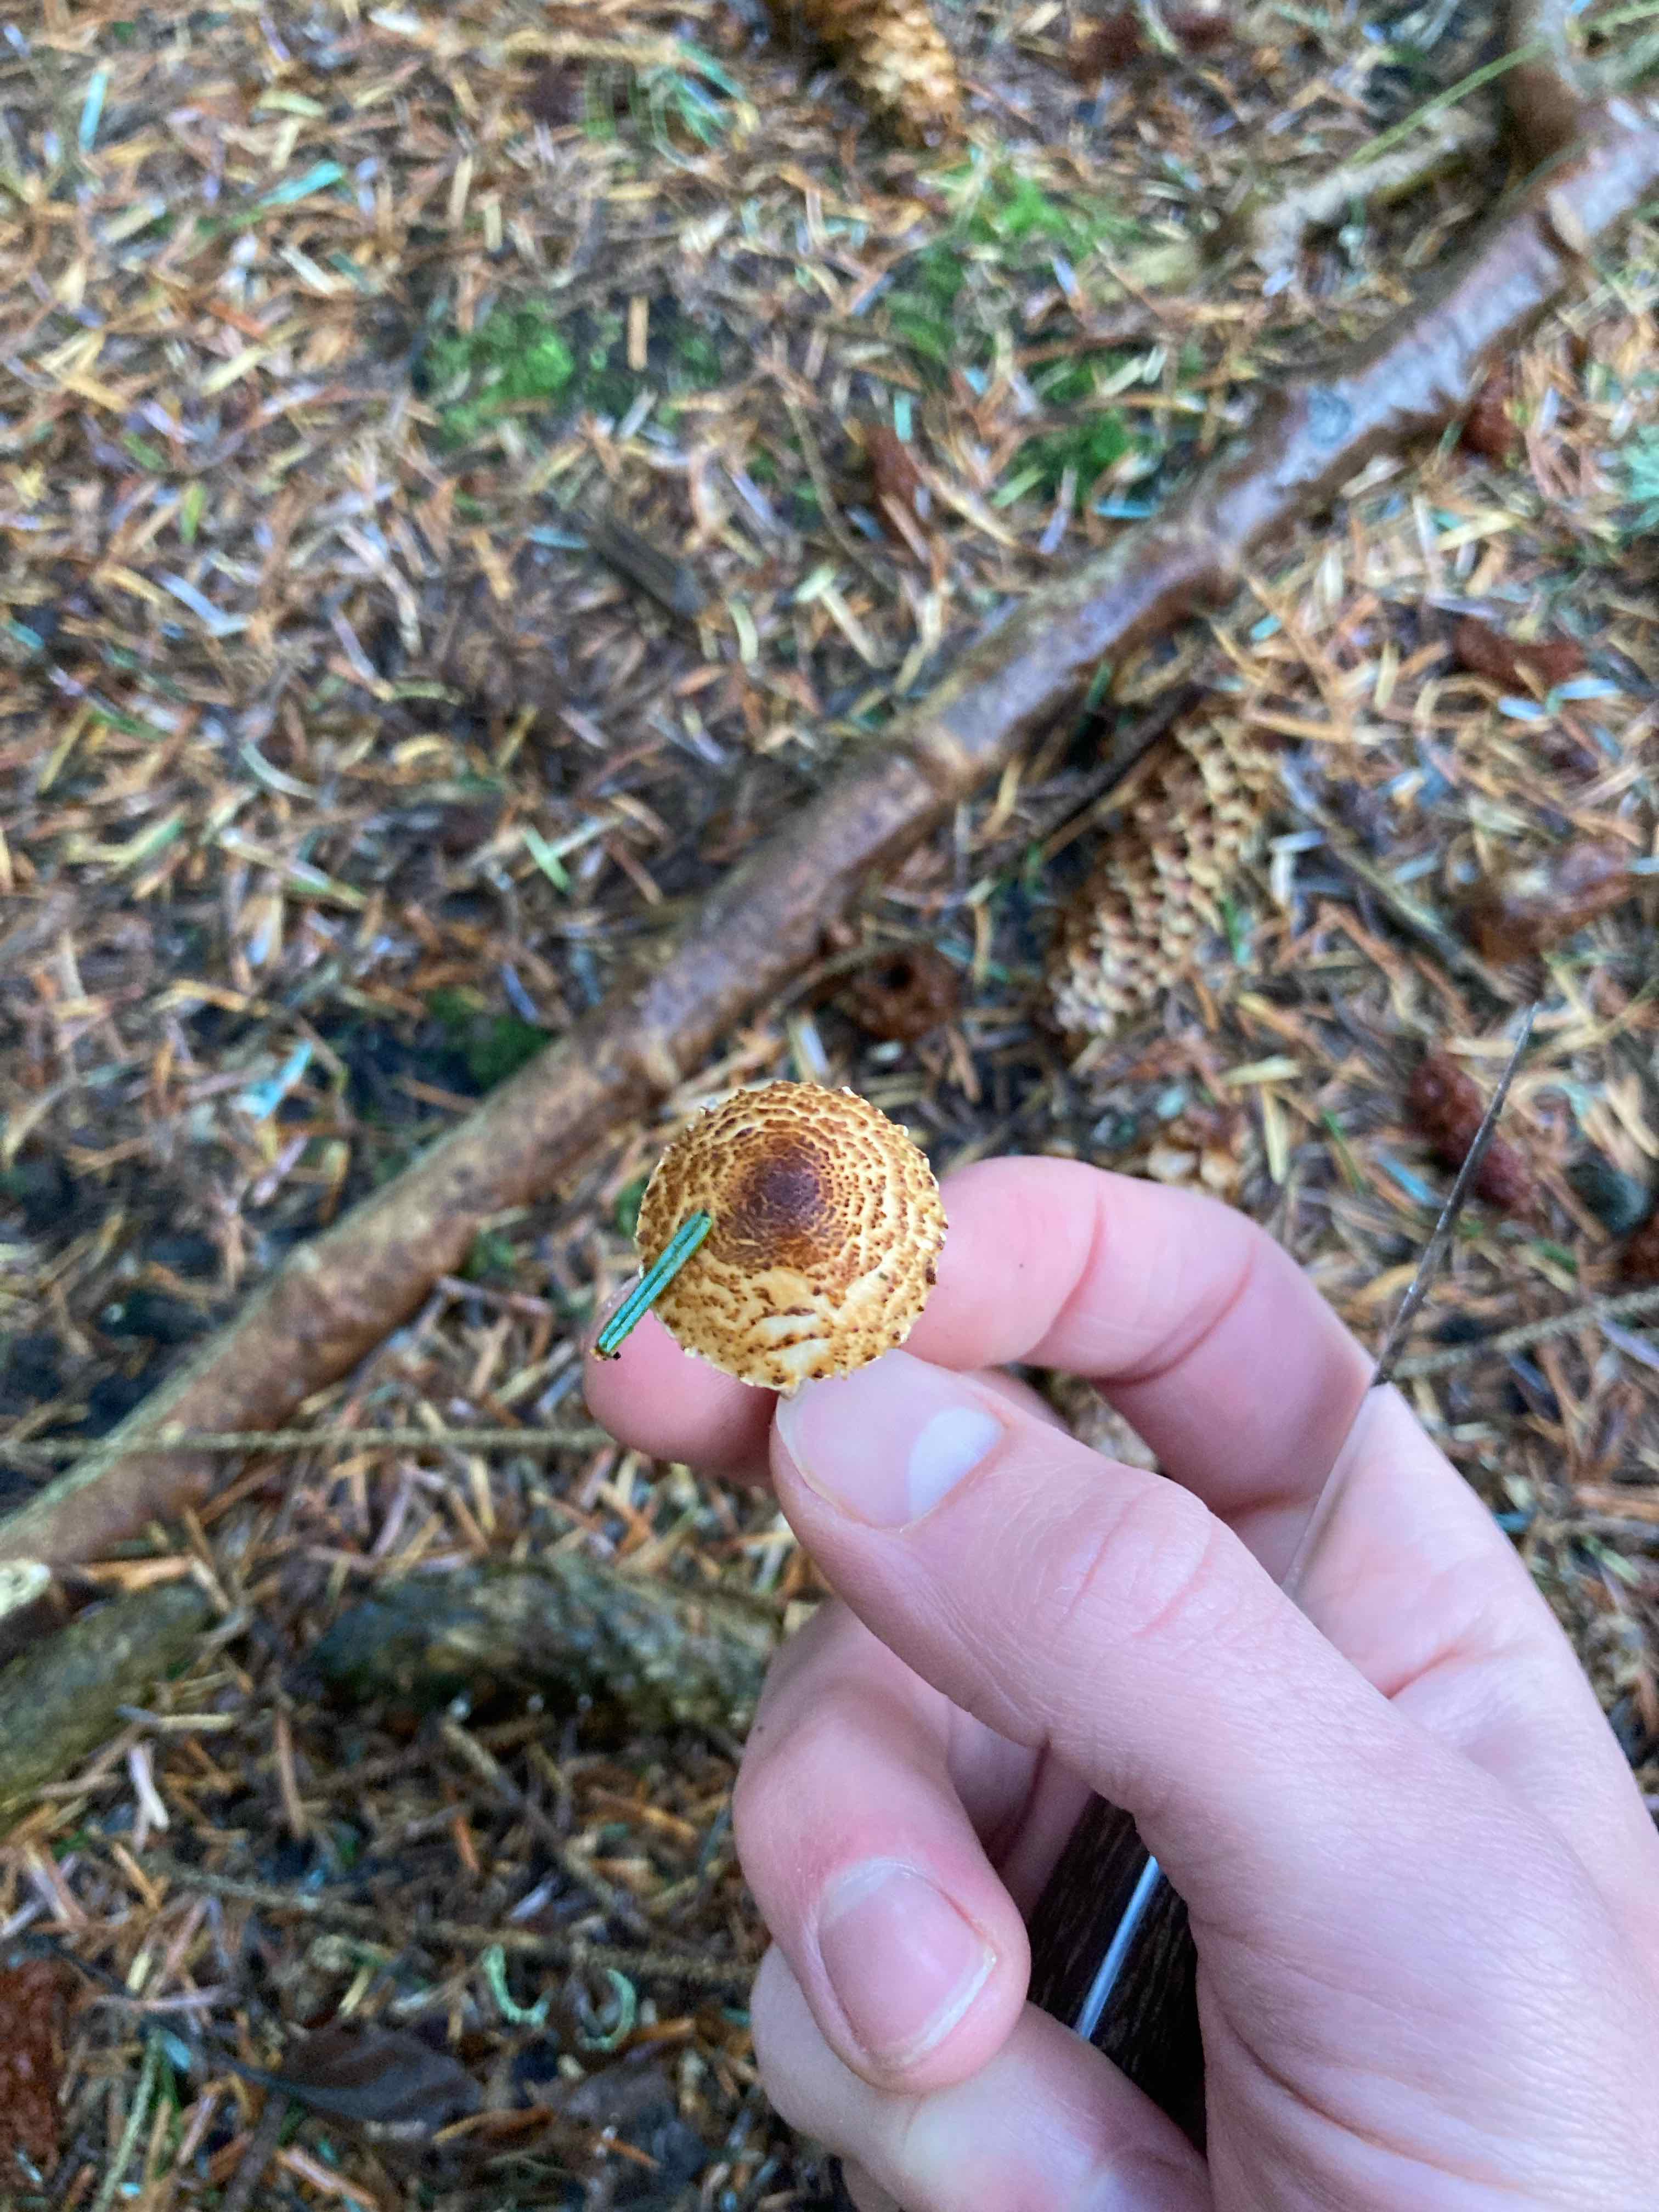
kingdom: Fungi
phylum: Basidiomycota
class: Agaricomycetes
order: Agaricales
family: Agaricaceae
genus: Lepiota
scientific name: Lepiota castanea
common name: kastaniebrun parasolhat
